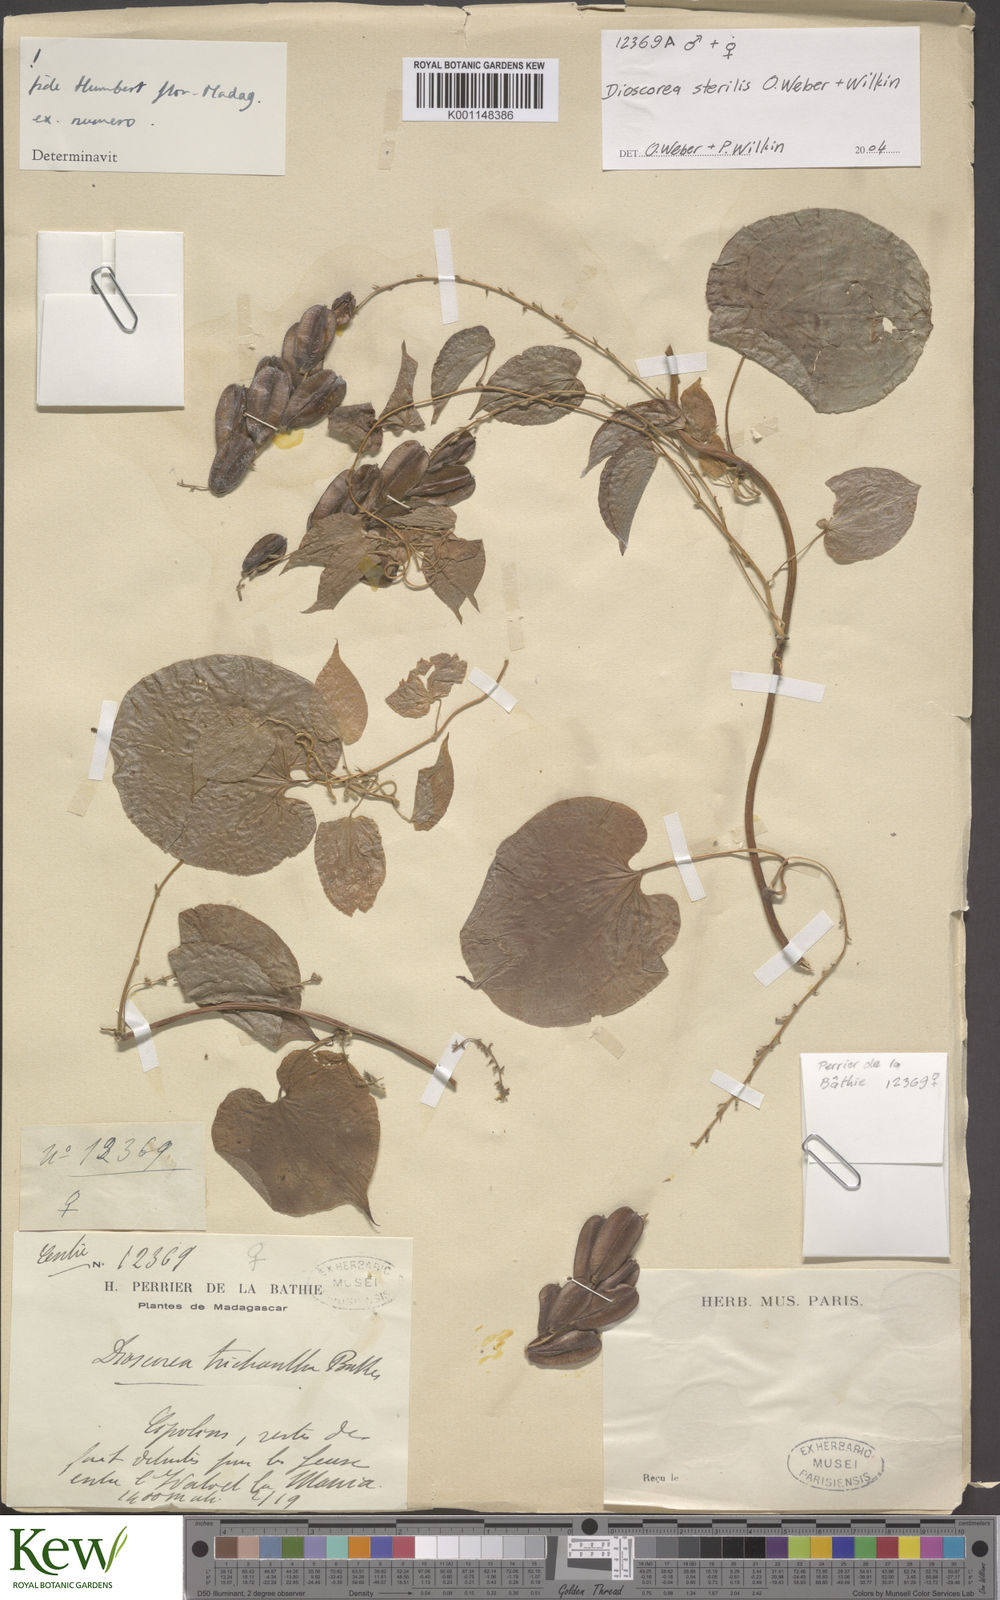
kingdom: Plantae
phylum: Tracheophyta
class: Liliopsida
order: Dioscoreales
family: Dioscoreaceae
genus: Dioscorea
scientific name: Dioscorea sterilis
